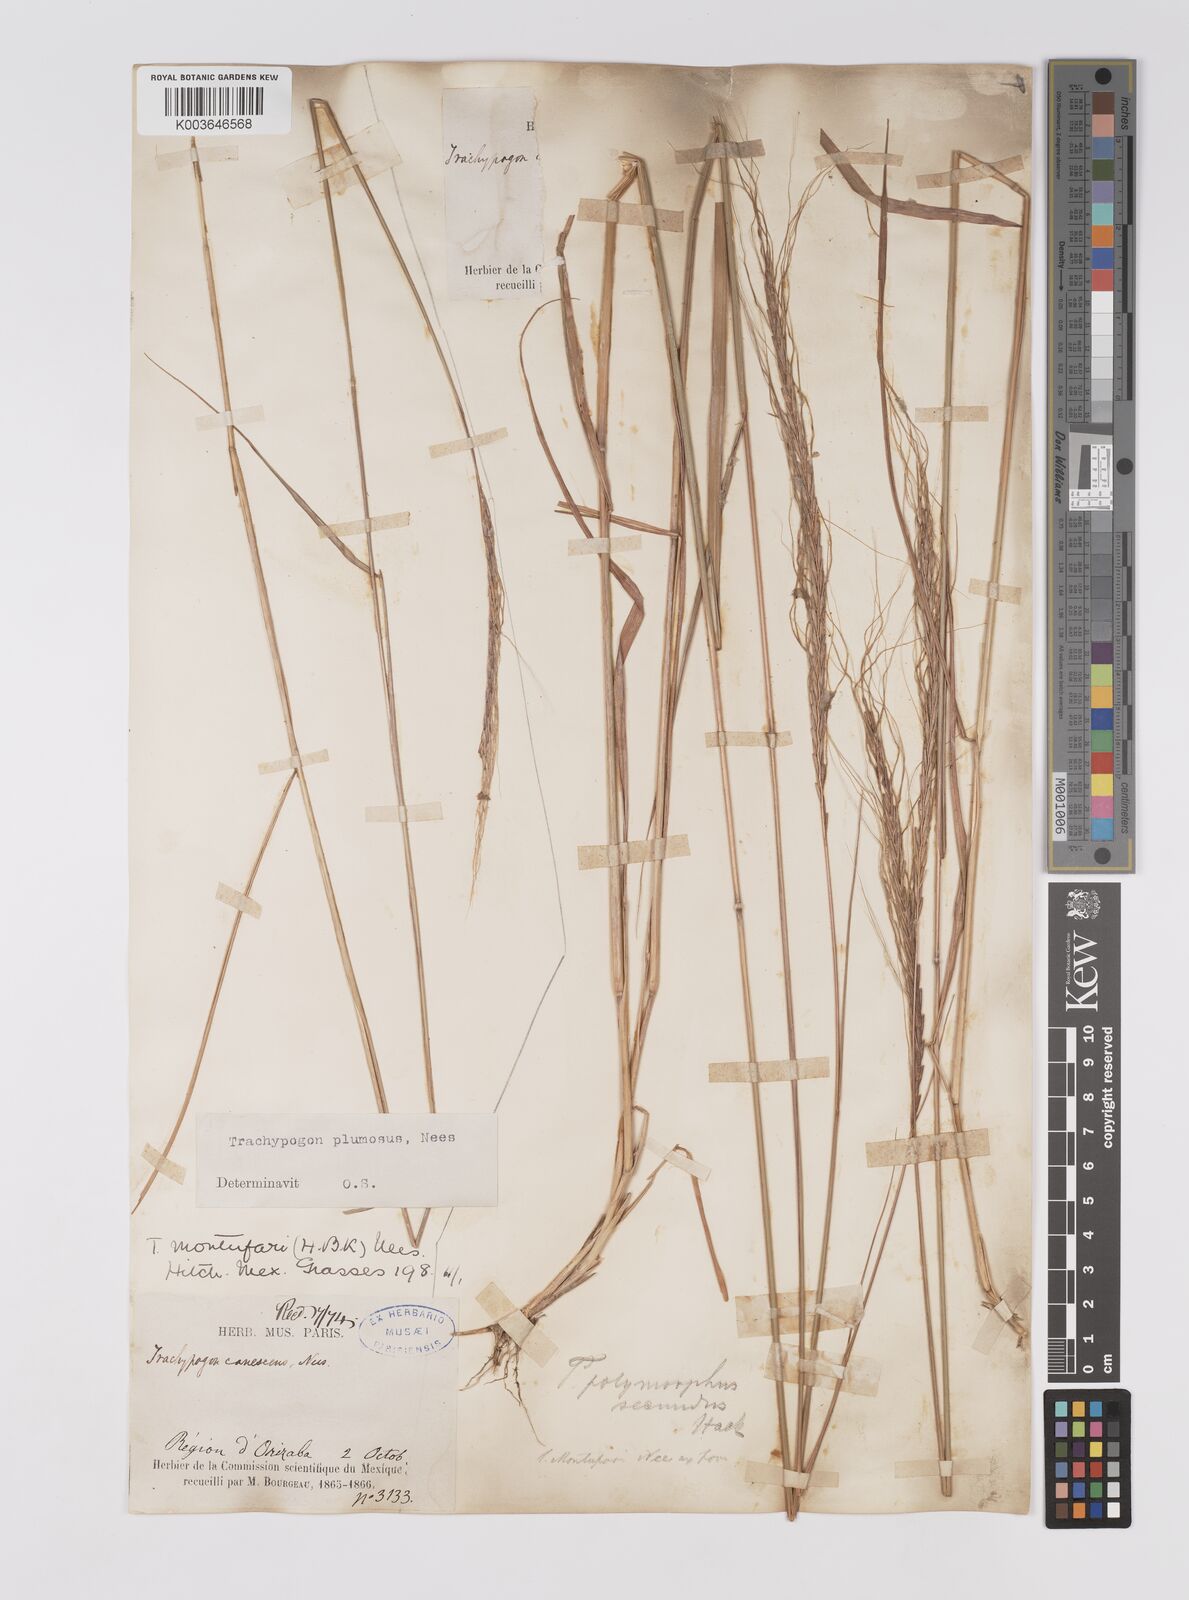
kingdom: Plantae
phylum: Tracheophyta
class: Liliopsida
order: Poales
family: Poaceae
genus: Trachypogon
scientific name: Trachypogon spicatus
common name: Crinkle-awn
